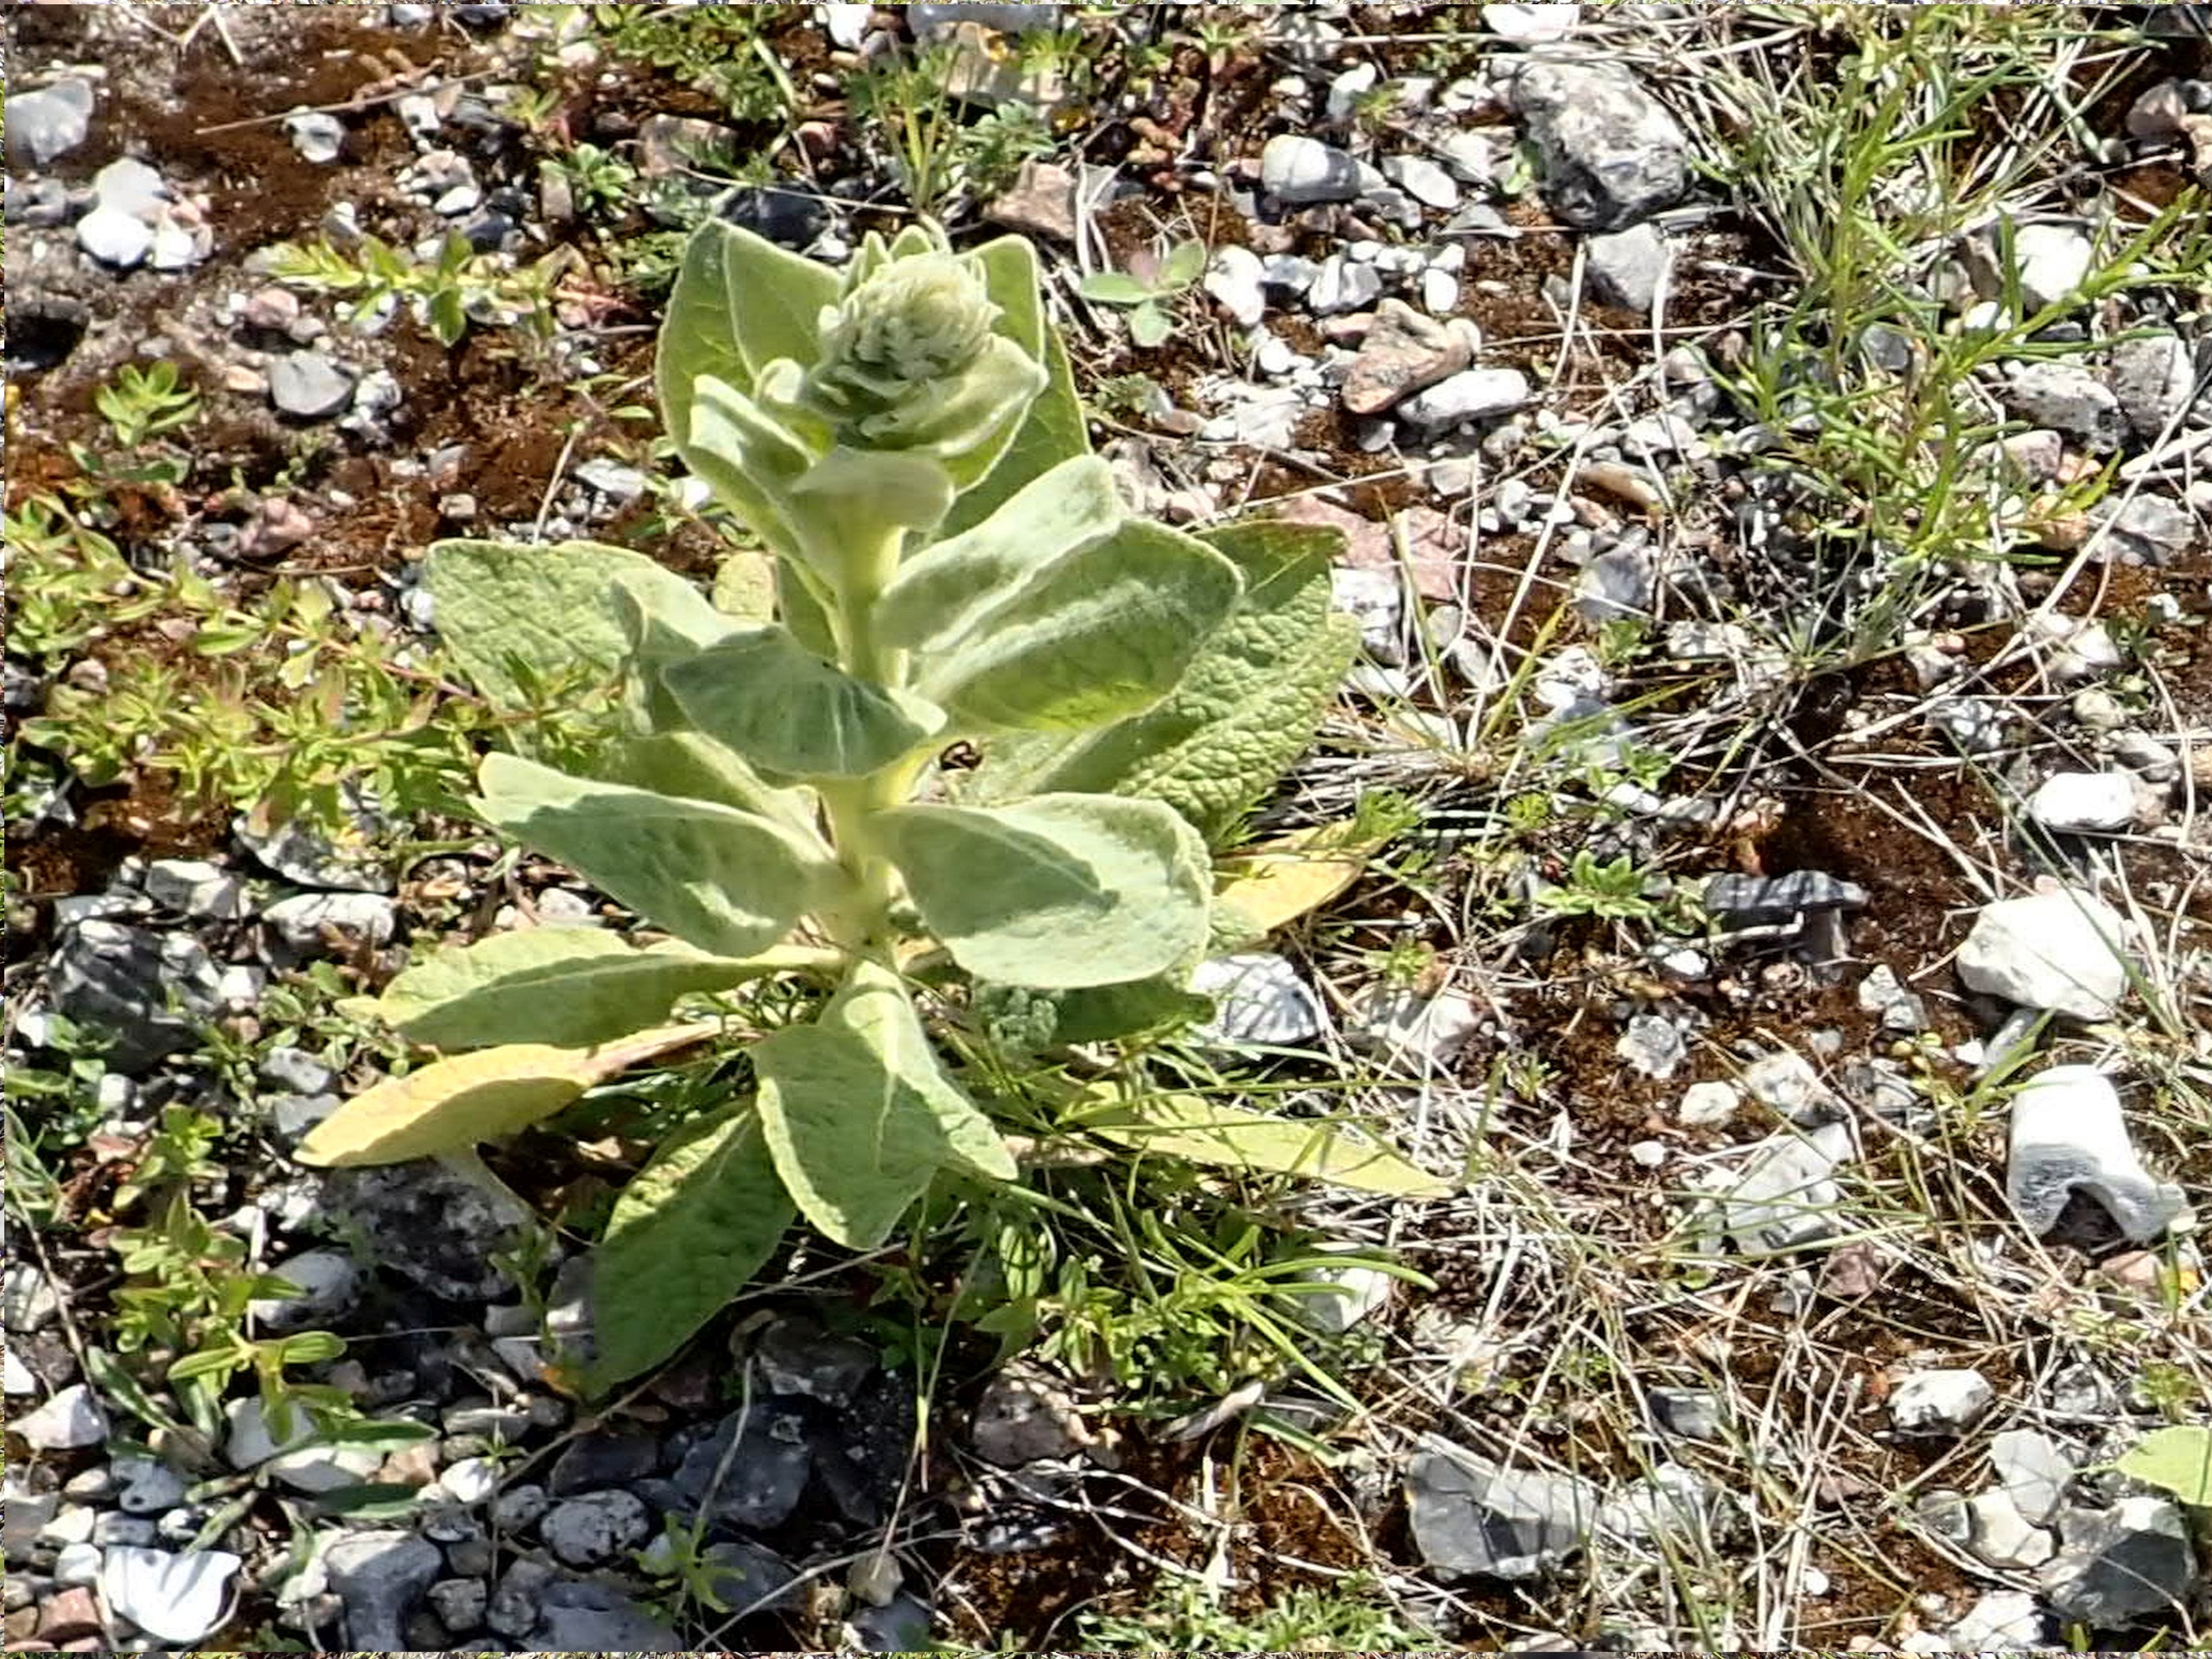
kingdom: Plantae
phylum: Tracheophyta
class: Magnoliopsida
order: Lamiales
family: Scrophulariaceae
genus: Verbascum
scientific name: Verbascum thapsus
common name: Filtbladet kongelys
